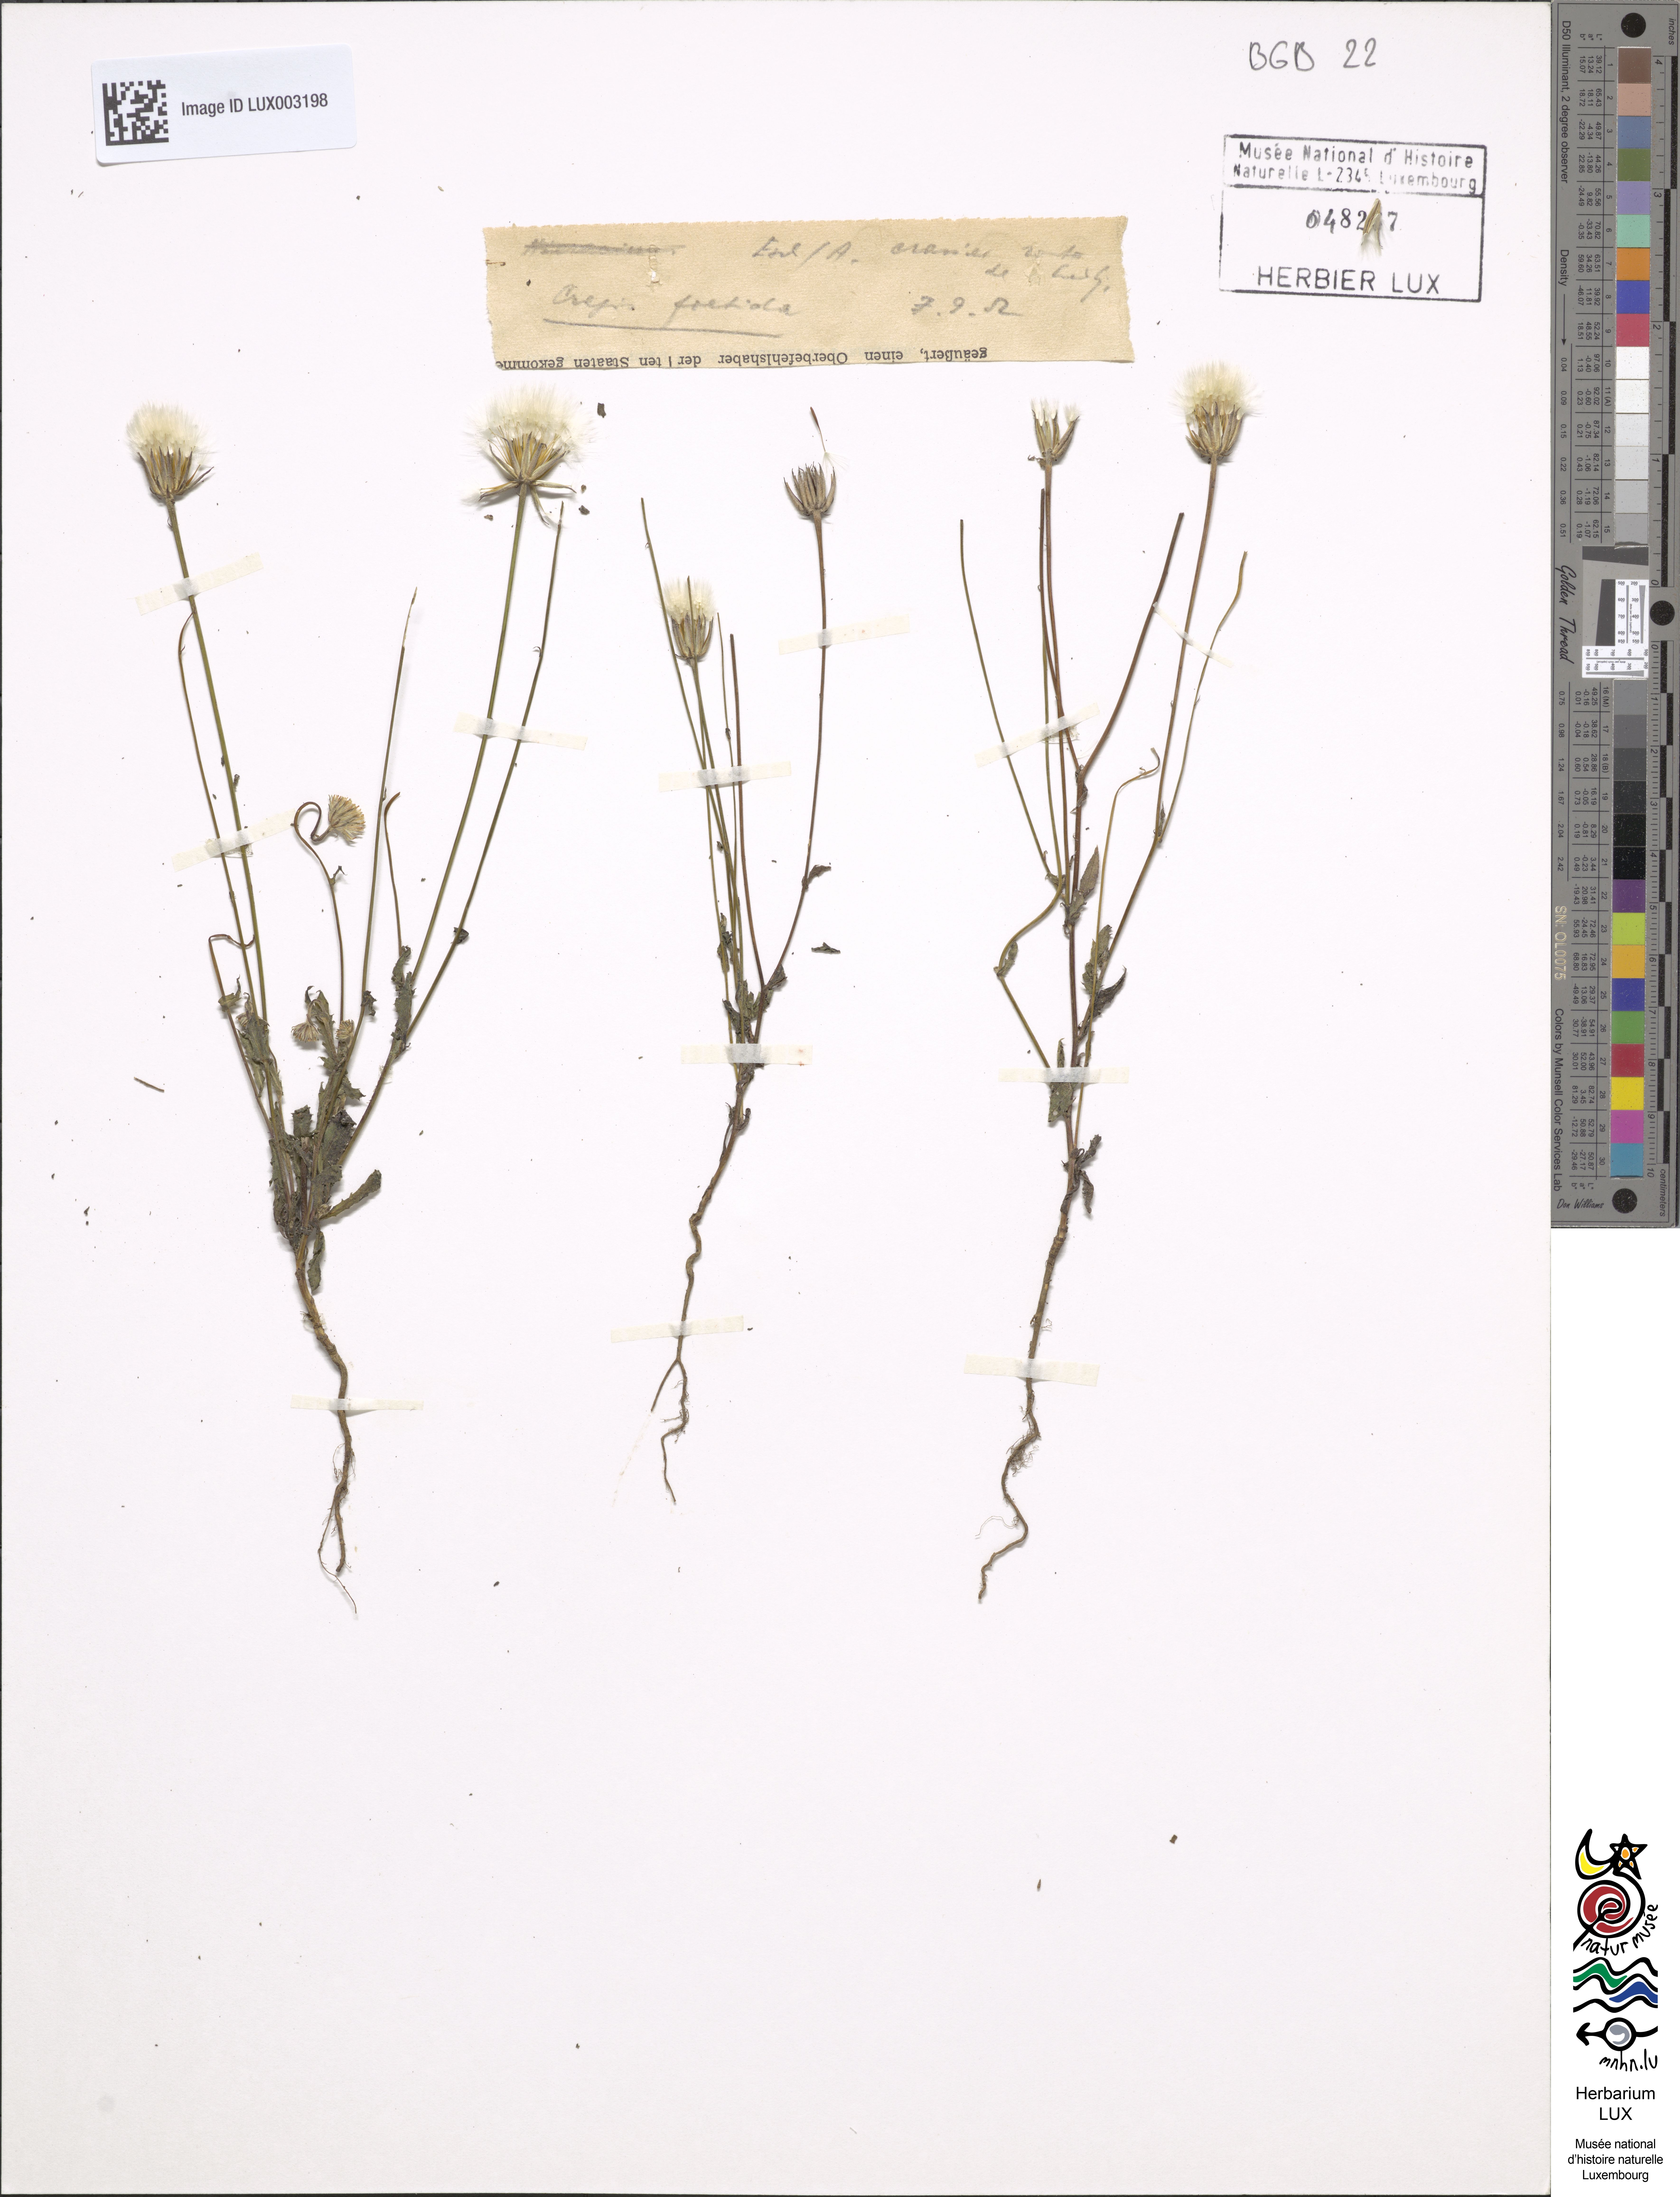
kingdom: Plantae
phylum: Tracheophyta
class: Magnoliopsida
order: Asterales
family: Asteraceae
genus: Crepis
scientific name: Crepis foetida
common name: Stinking hawk's-beard
